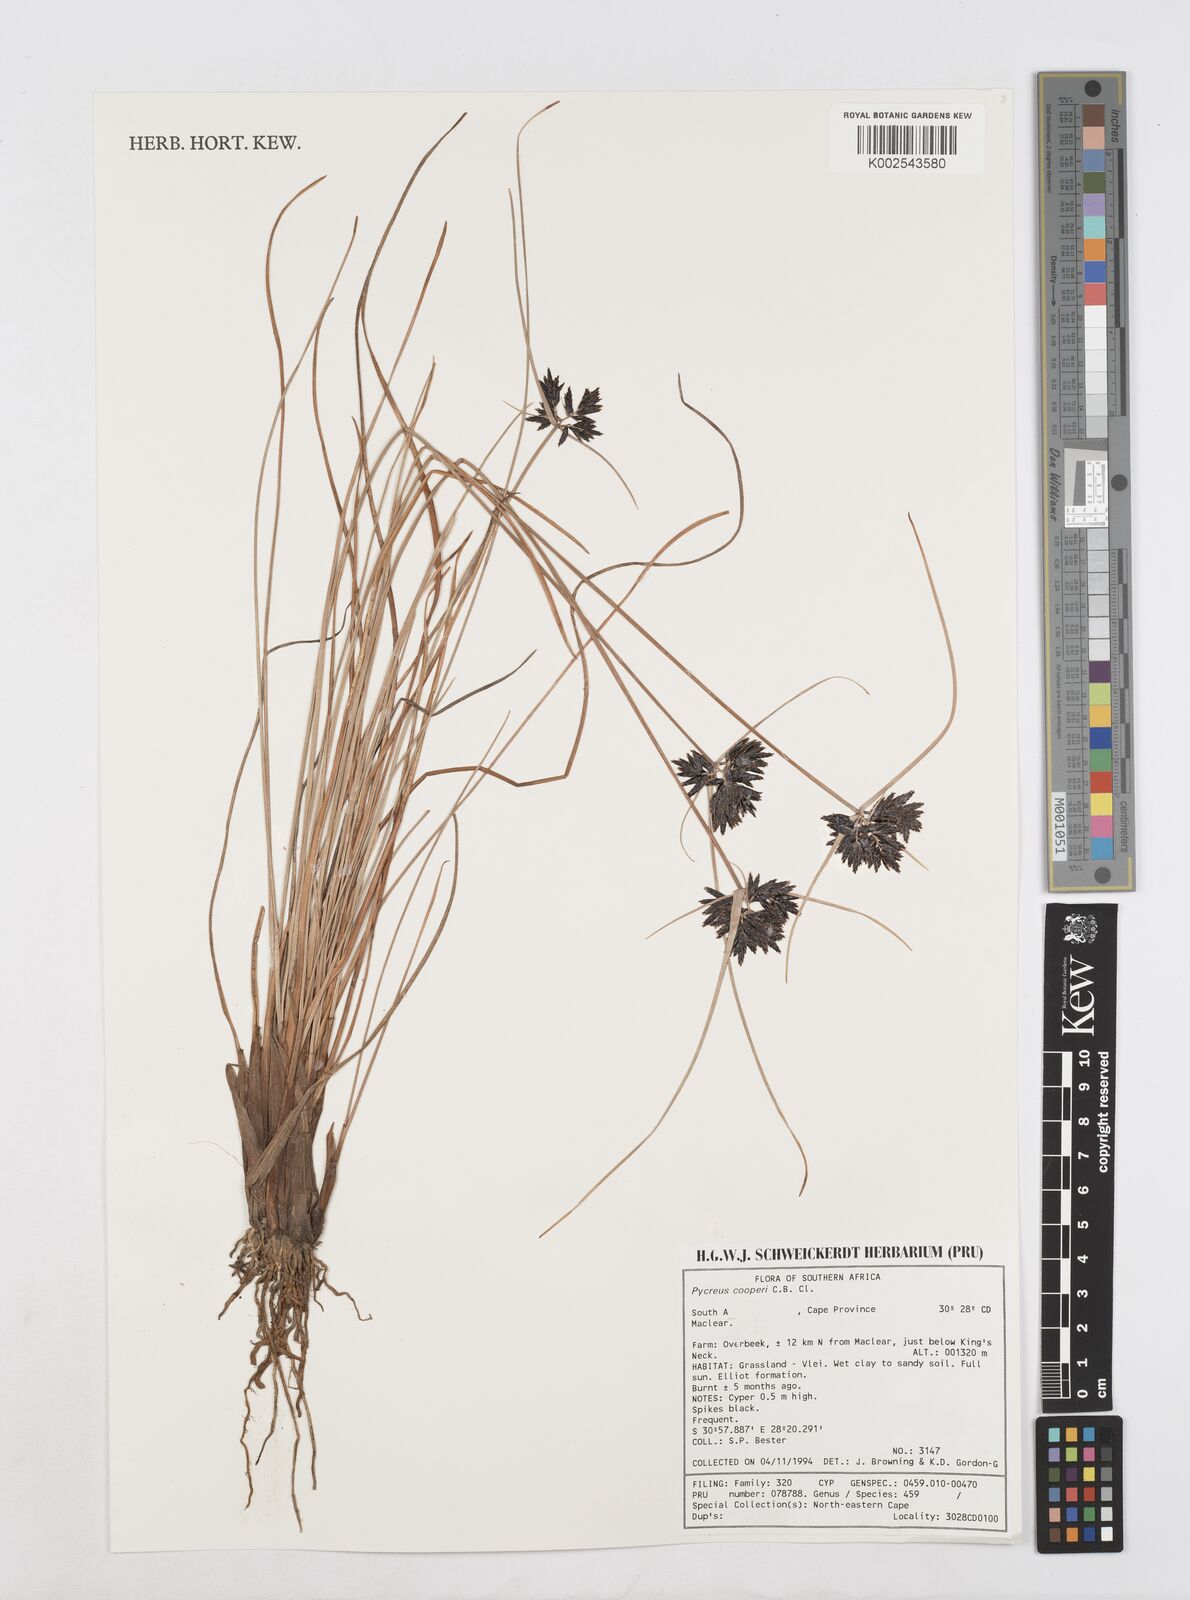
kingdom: Plantae
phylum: Tracheophyta
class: Liliopsida
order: Poales
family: Cyperaceae
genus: Cyperus
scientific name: Cyperus
